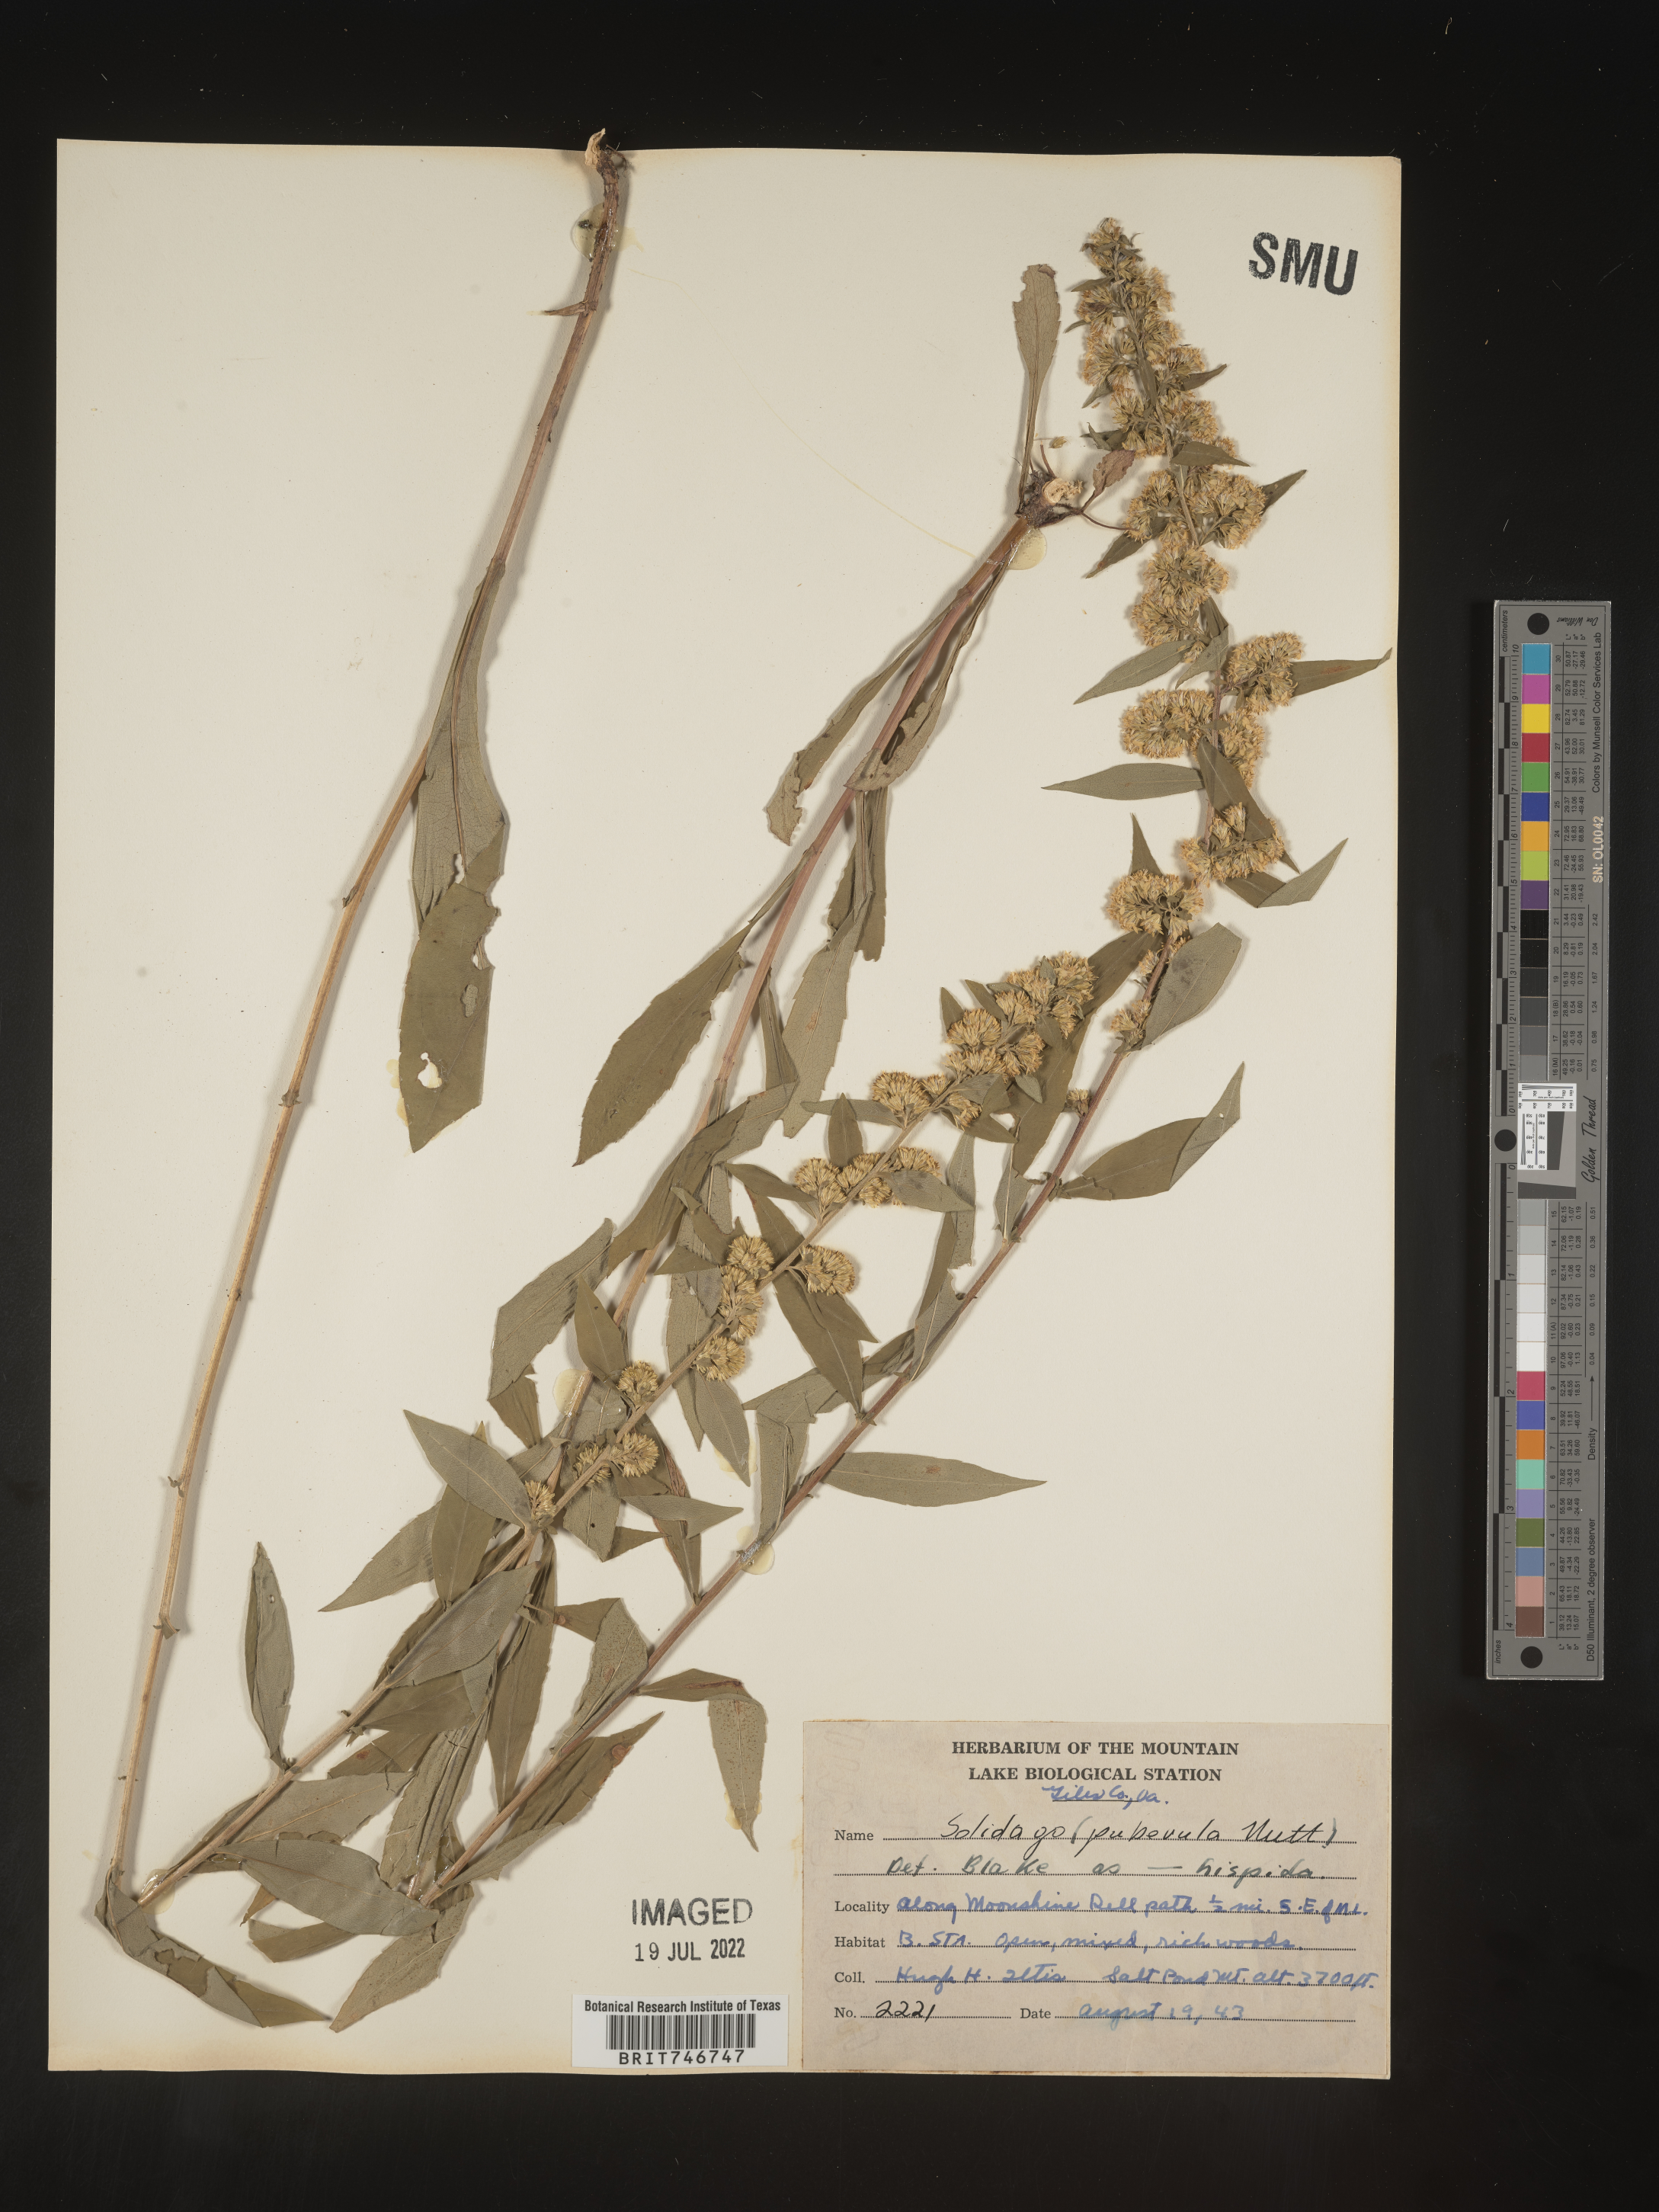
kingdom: Plantae
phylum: Tracheophyta
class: Magnoliopsida
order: Asterales
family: Asteraceae
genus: Solidago
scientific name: Solidago hispida
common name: Hairy goldenrod
